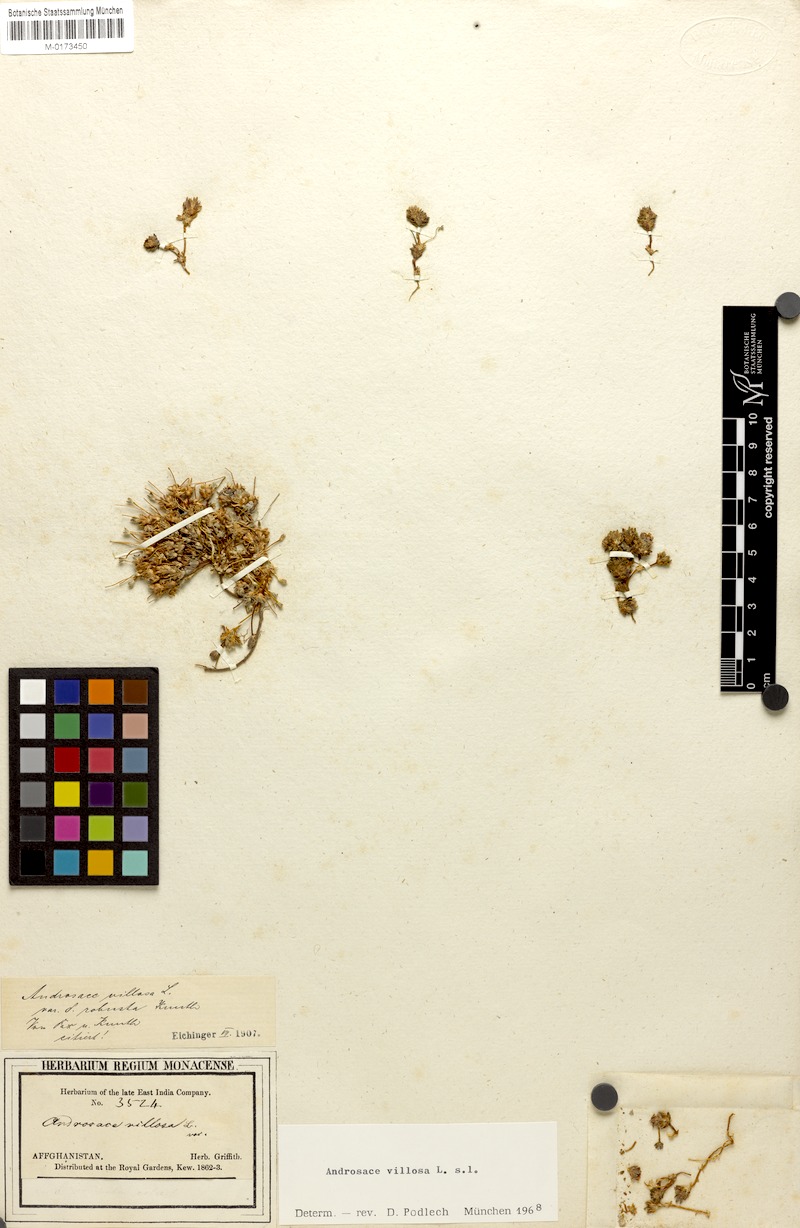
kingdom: Plantae
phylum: Tracheophyta
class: Magnoliopsida
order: Ericales
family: Primulaceae
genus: Androsace
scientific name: Androsace jacquemontii
